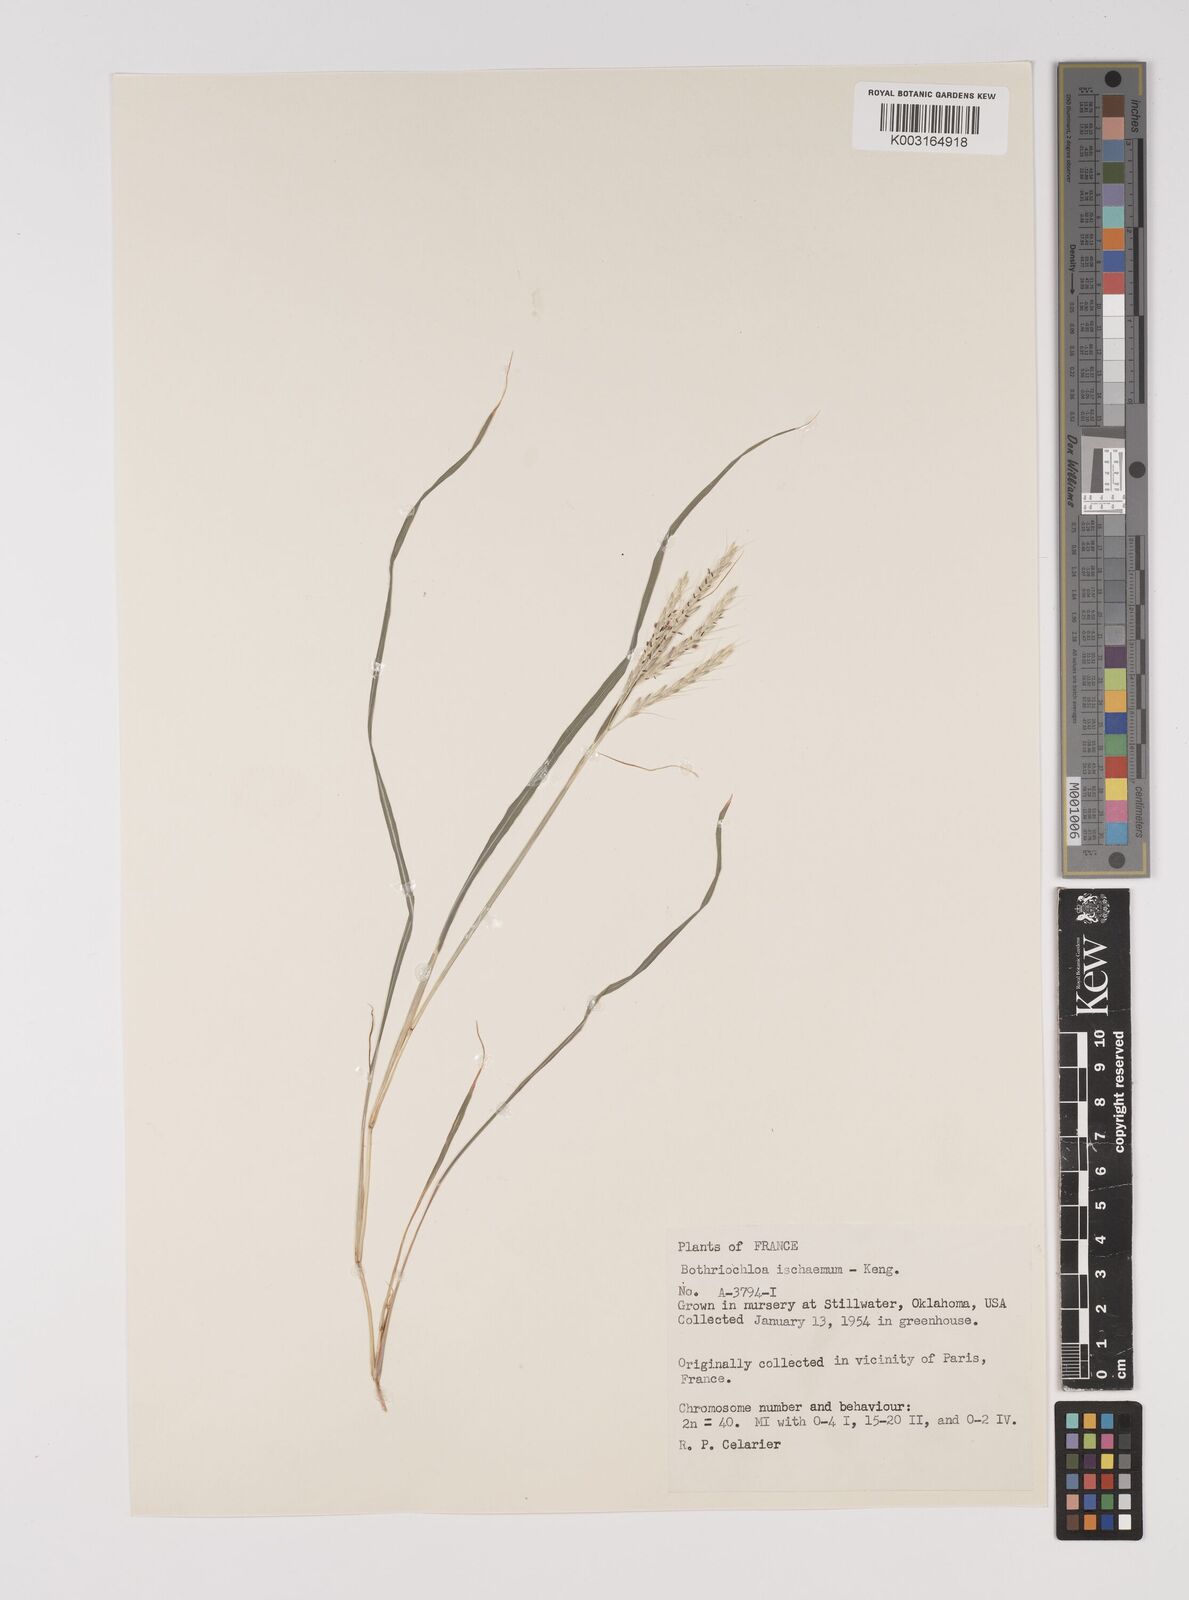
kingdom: Plantae
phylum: Tracheophyta
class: Liliopsida
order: Poales
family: Poaceae
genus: Bothriochloa
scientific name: Bothriochloa ischaemum
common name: Yellow bluestem
